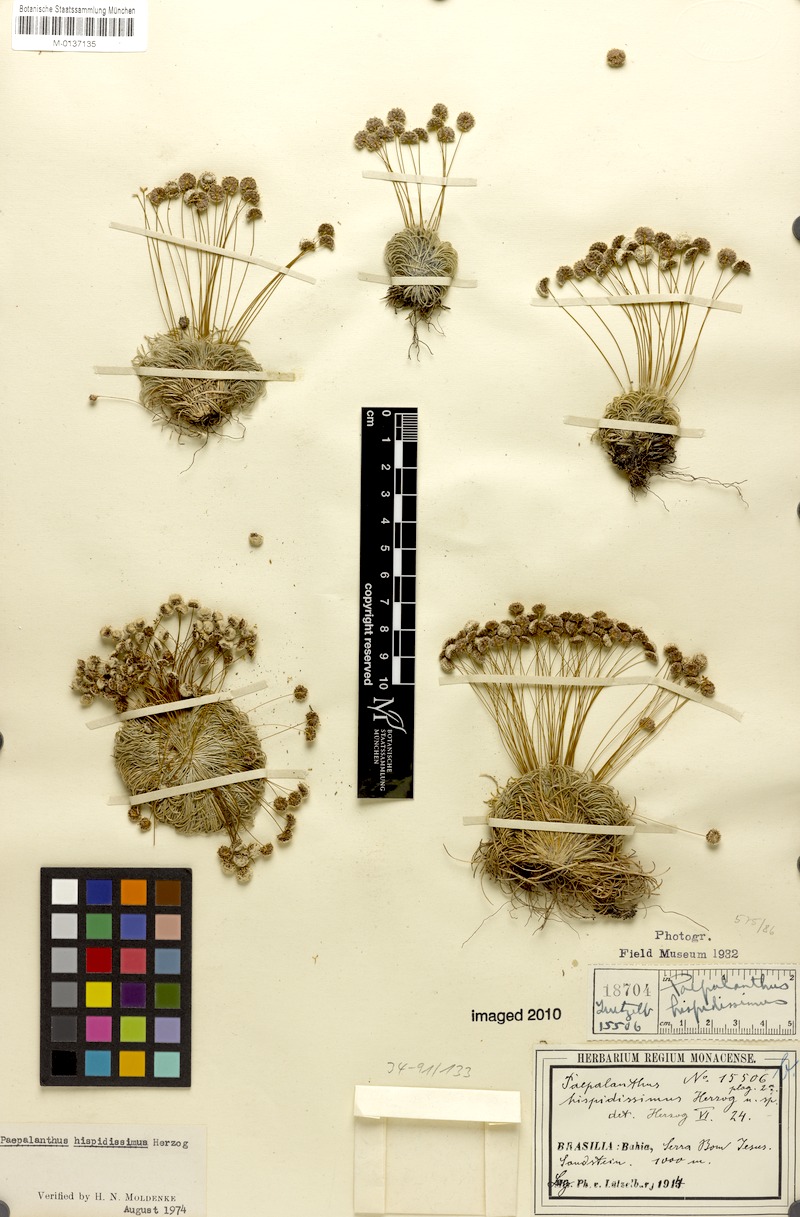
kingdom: Plantae
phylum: Tracheophyta
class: Liliopsida
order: Poales
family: Eriocaulaceae
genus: Paepalanthus
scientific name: Paepalanthus pulvinatus
